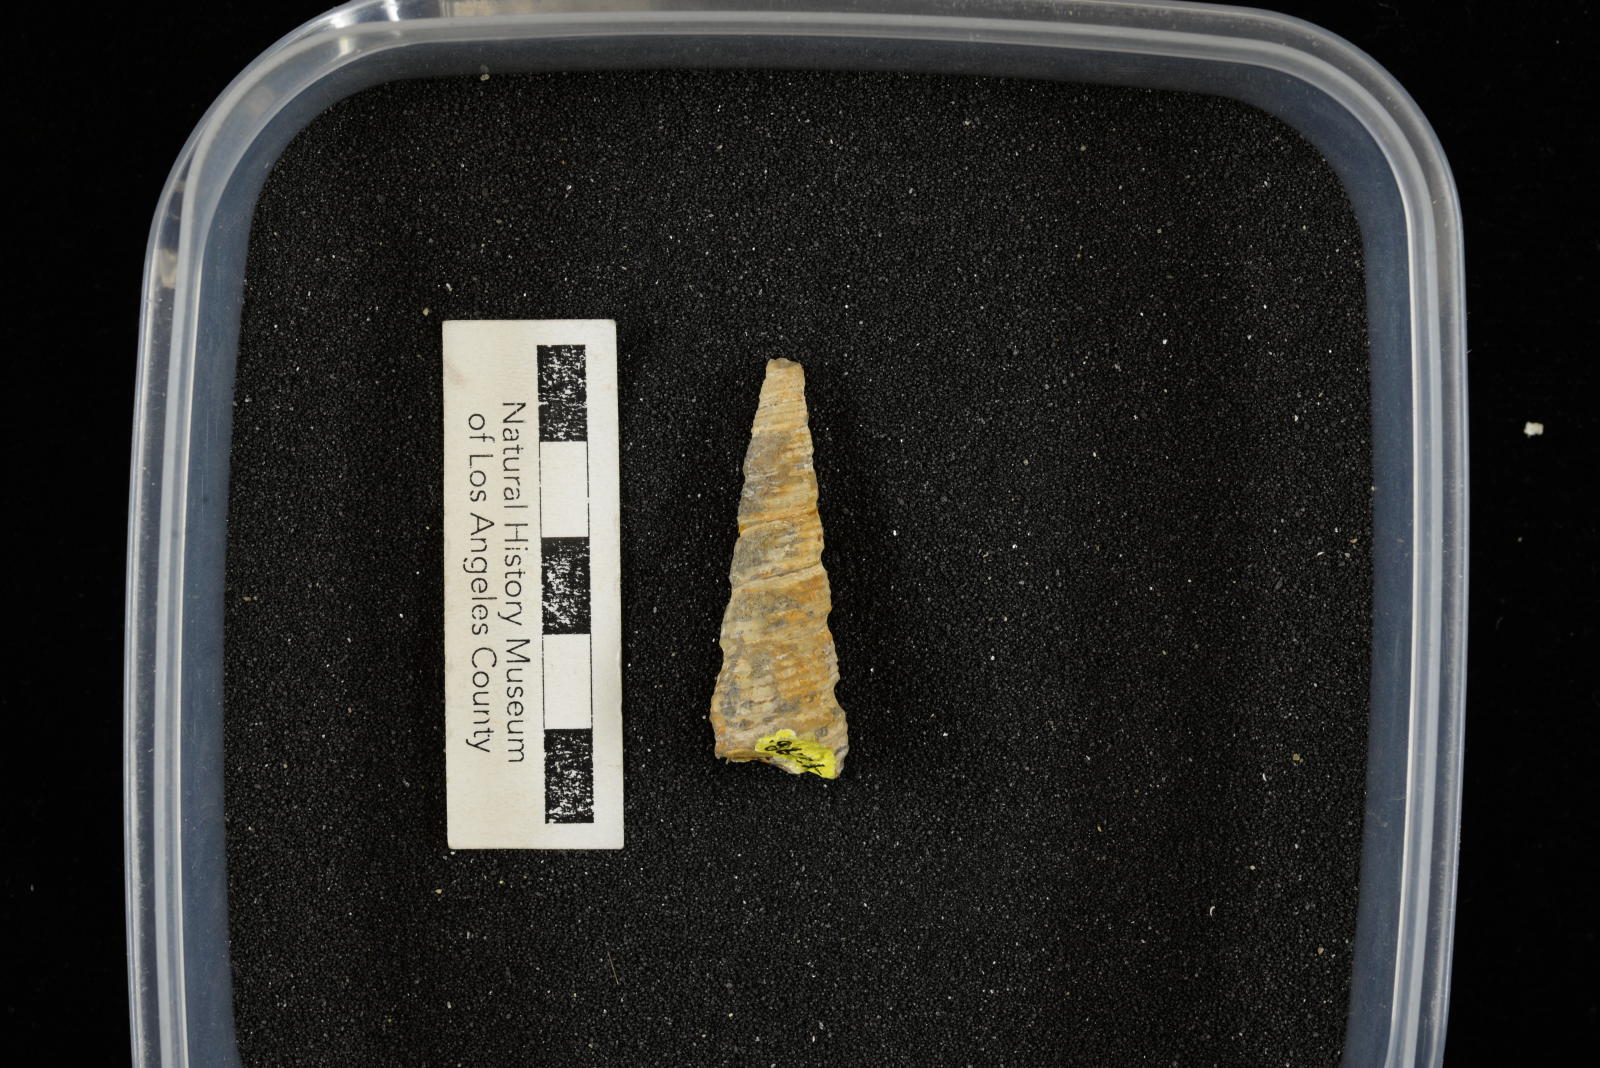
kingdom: Animalia
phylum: Mollusca
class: Gastropoda
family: Turritellidae
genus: Turritella
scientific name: Turritella chicoensis
